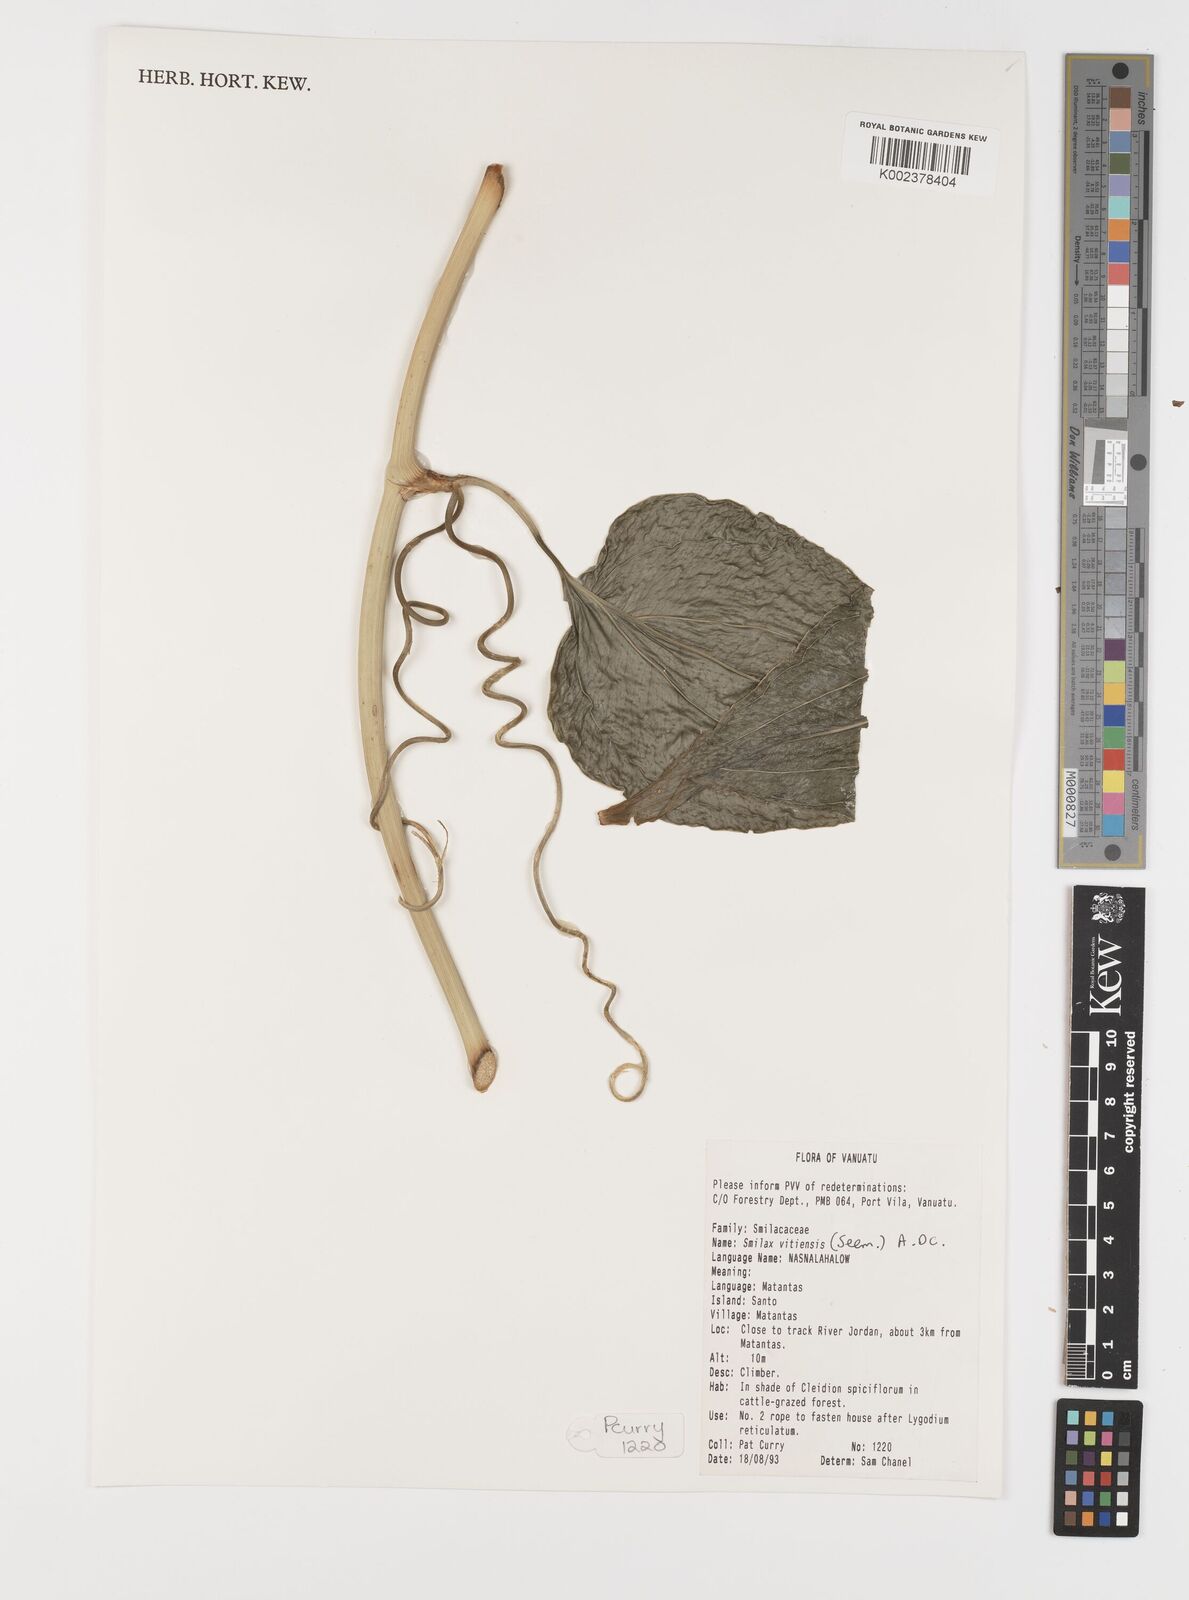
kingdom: Plantae
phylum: Tracheophyta
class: Liliopsida
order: Liliales
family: Smilacaceae
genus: Smilax
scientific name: Smilax vitiensis
